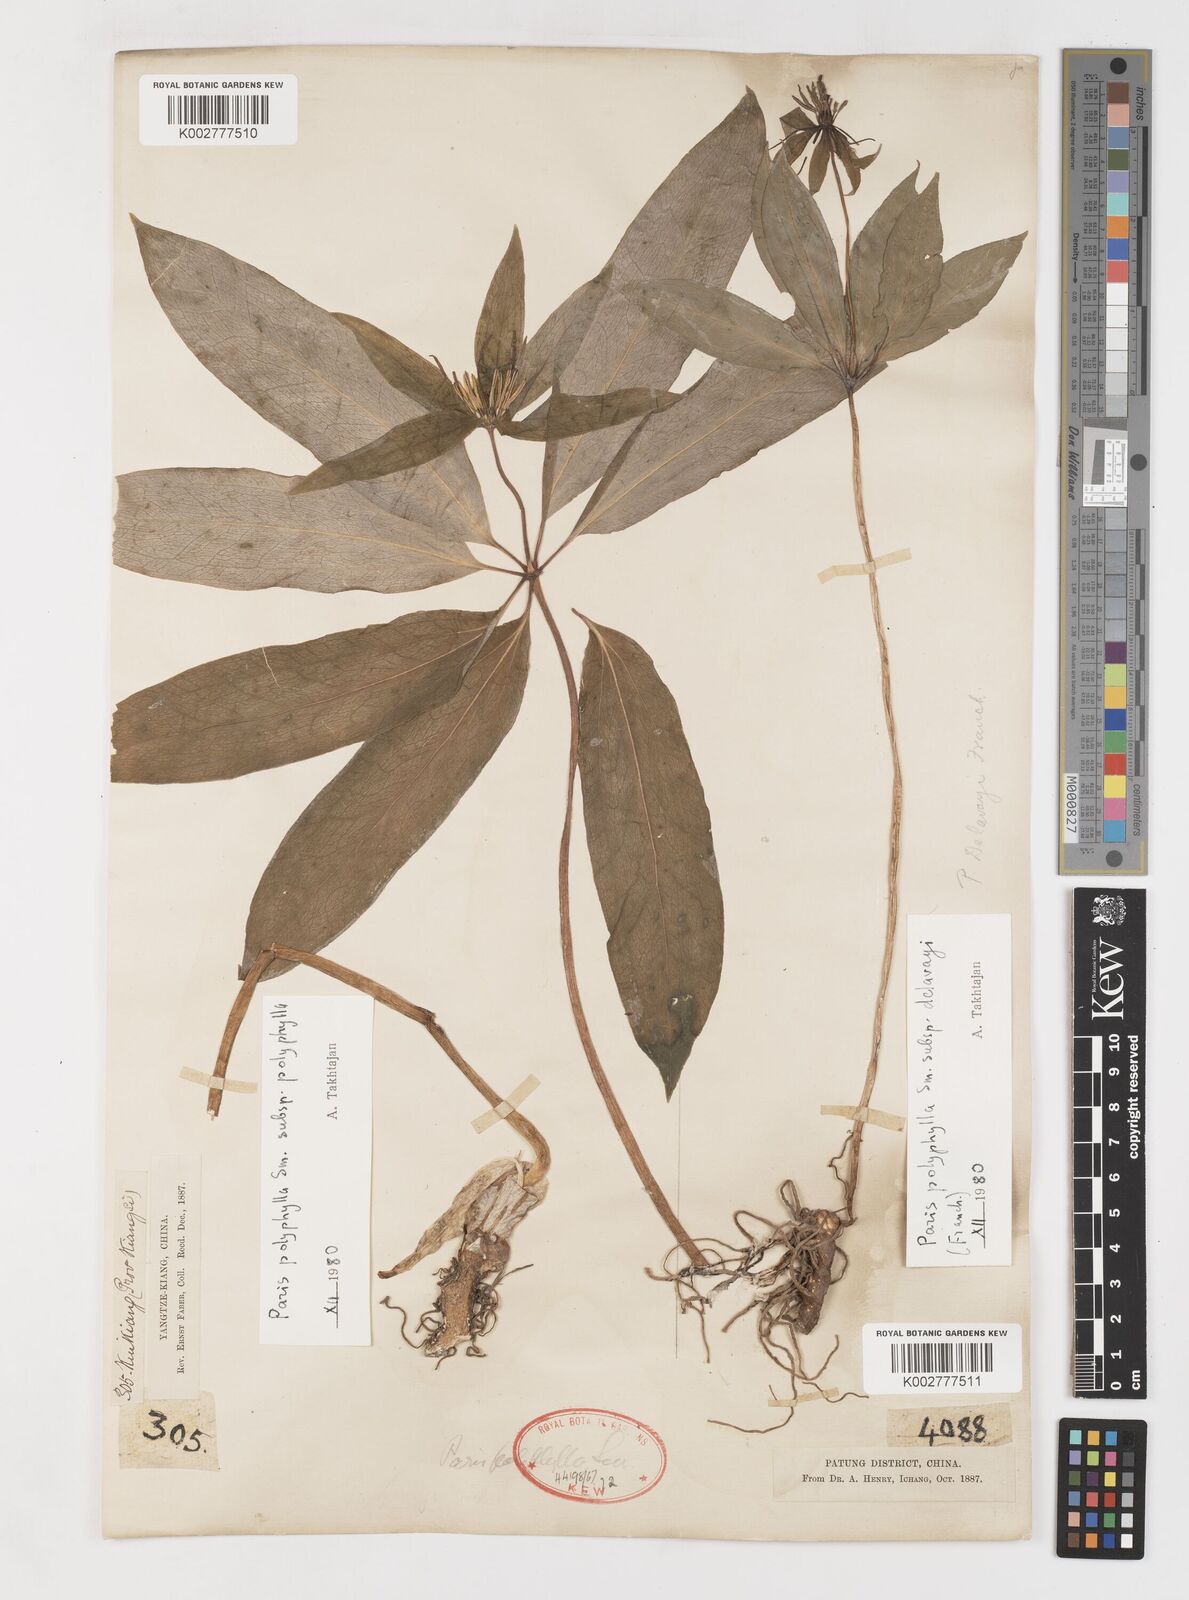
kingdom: Plantae
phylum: Tracheophyta
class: Liliopsida
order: Liliales
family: Melanthiaceae
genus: Paris
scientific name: Paris delavayi
